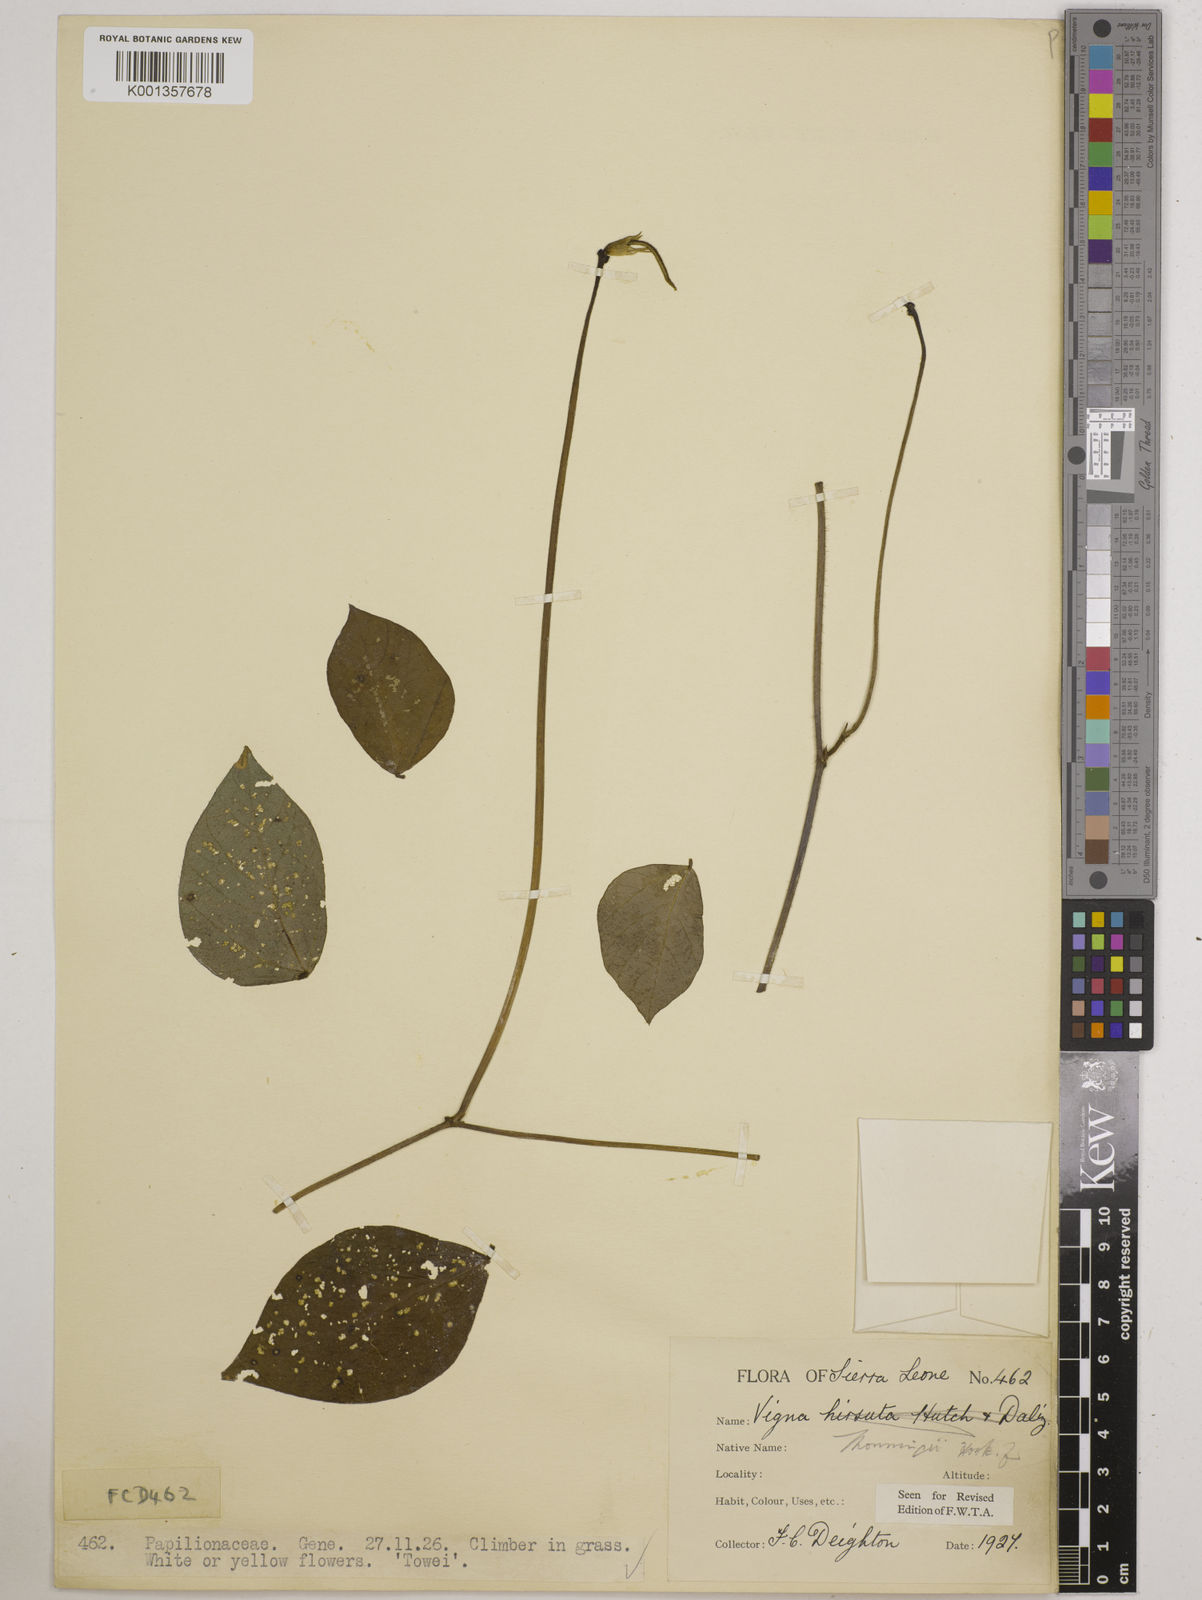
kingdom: Plantae
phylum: Tracheophyta
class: Magnoliopsida
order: Fabales
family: Fabaceae
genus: Vigna
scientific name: Vigna
